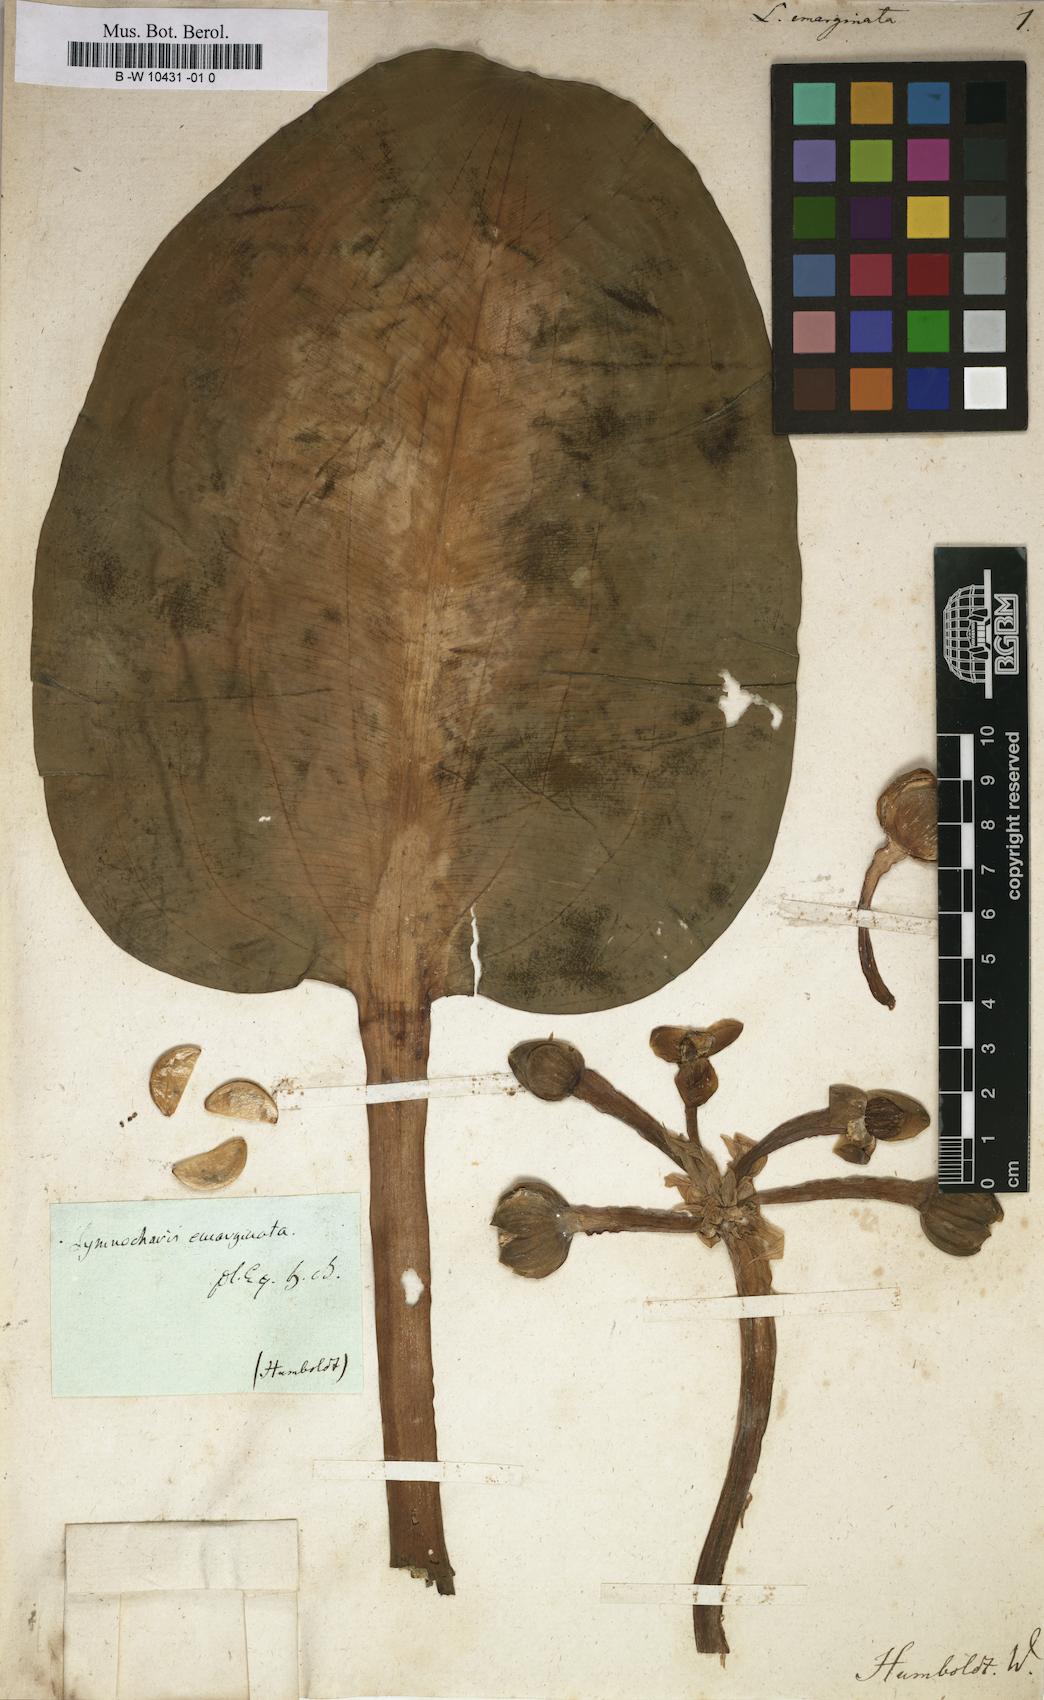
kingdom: Plantae
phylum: Tracheophyta
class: Liliopsida
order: Alismatales
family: Alismataceae
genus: Limnocharis
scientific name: Limnocharis flava
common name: Sawah-flower-rush
